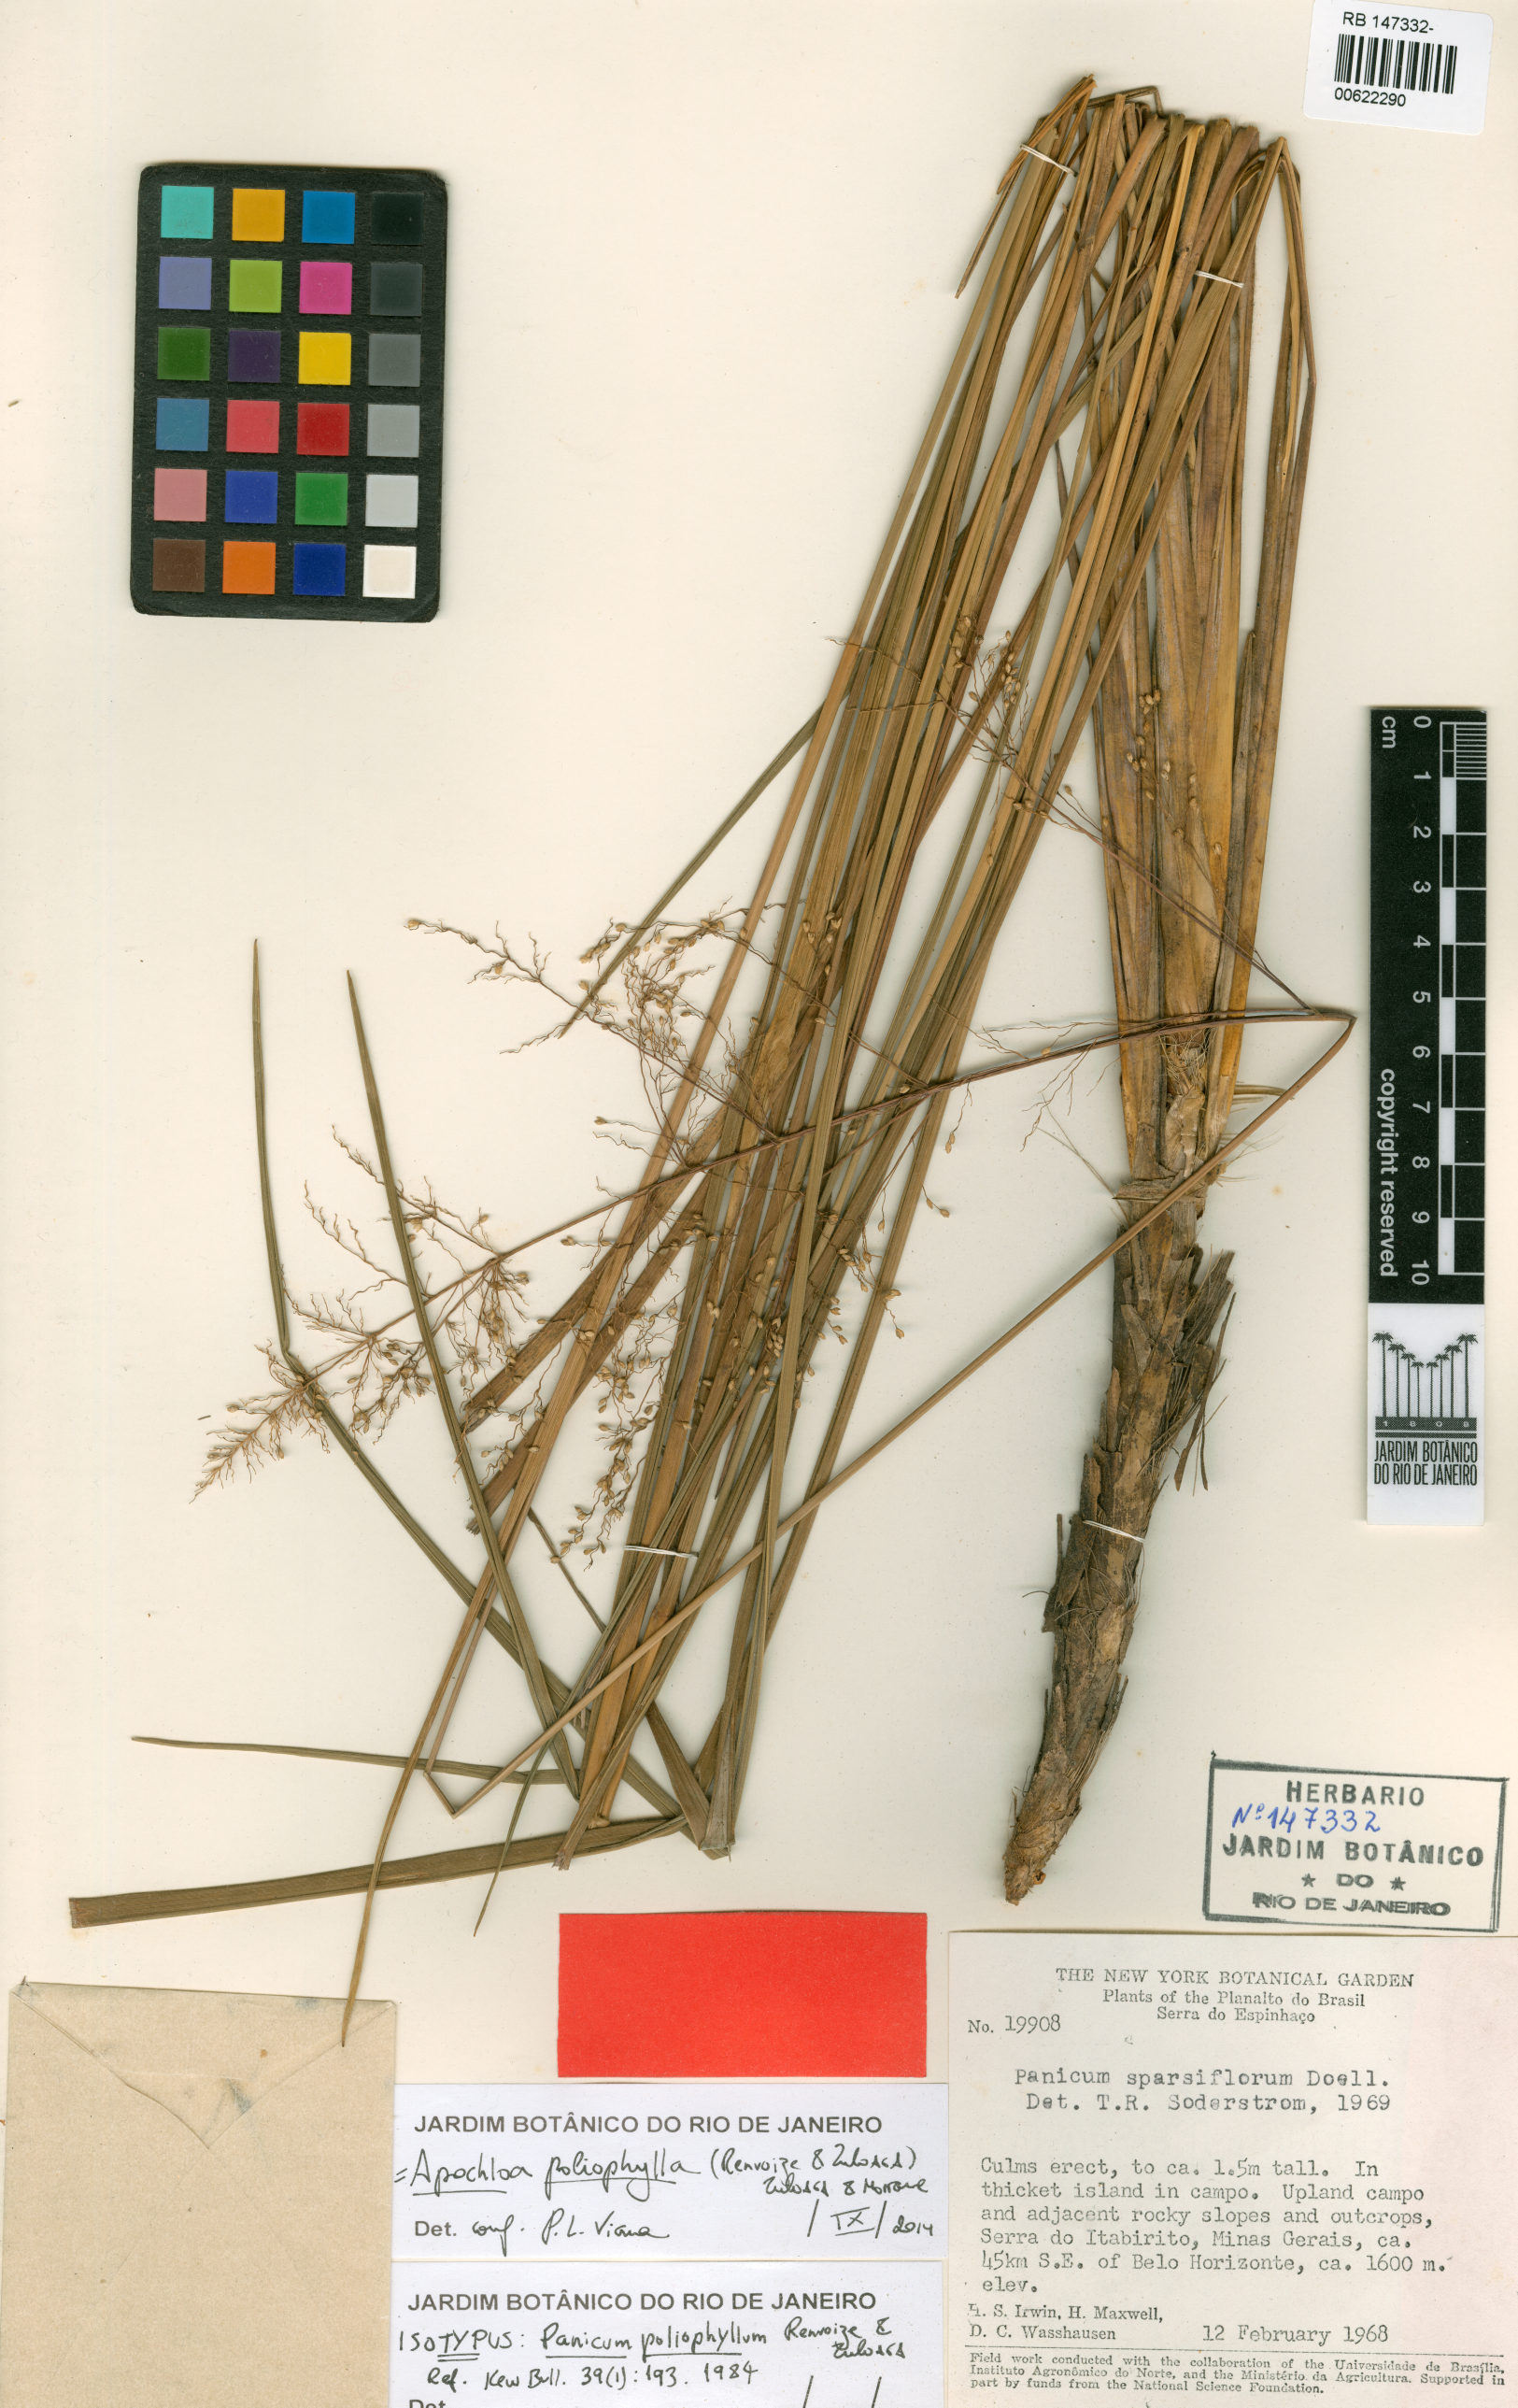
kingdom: Plantae
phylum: Tracheophyta
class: Liliopsida
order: Poales
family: Poaceae
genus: Apochloa
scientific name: Apochloa poliophylla
